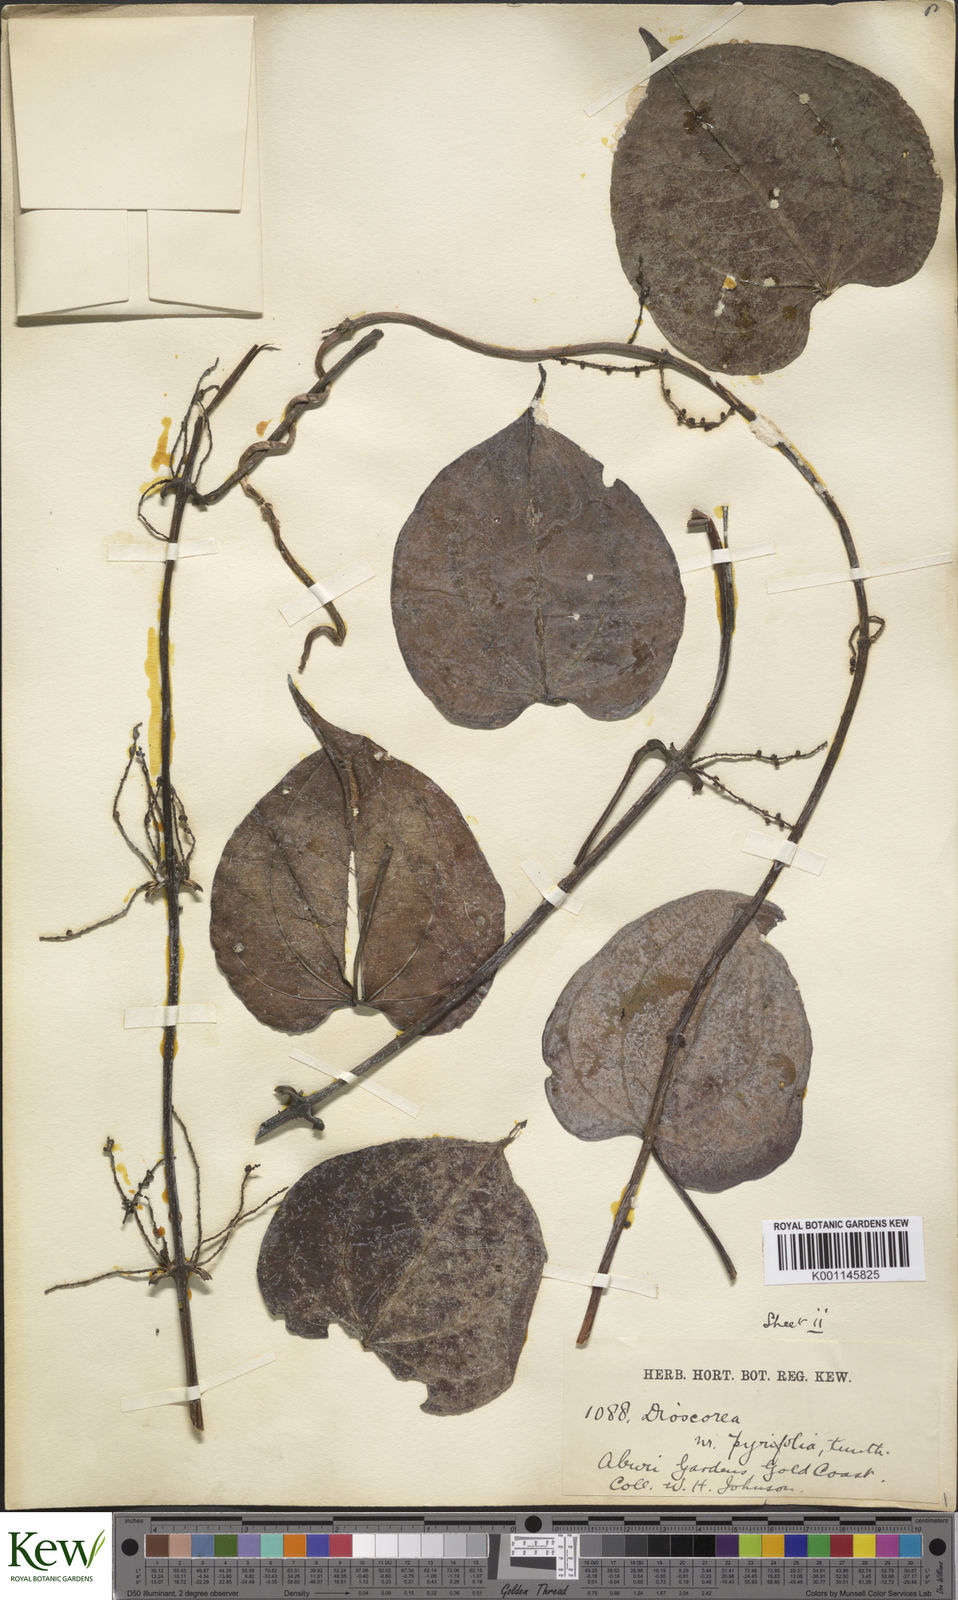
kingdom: Plantae
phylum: Tracheophyta
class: Liliopsida
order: Dioscoreales
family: Dioscoreaceae
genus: Dioscorea
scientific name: Dioscorea cayenensis
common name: Attoto yam
